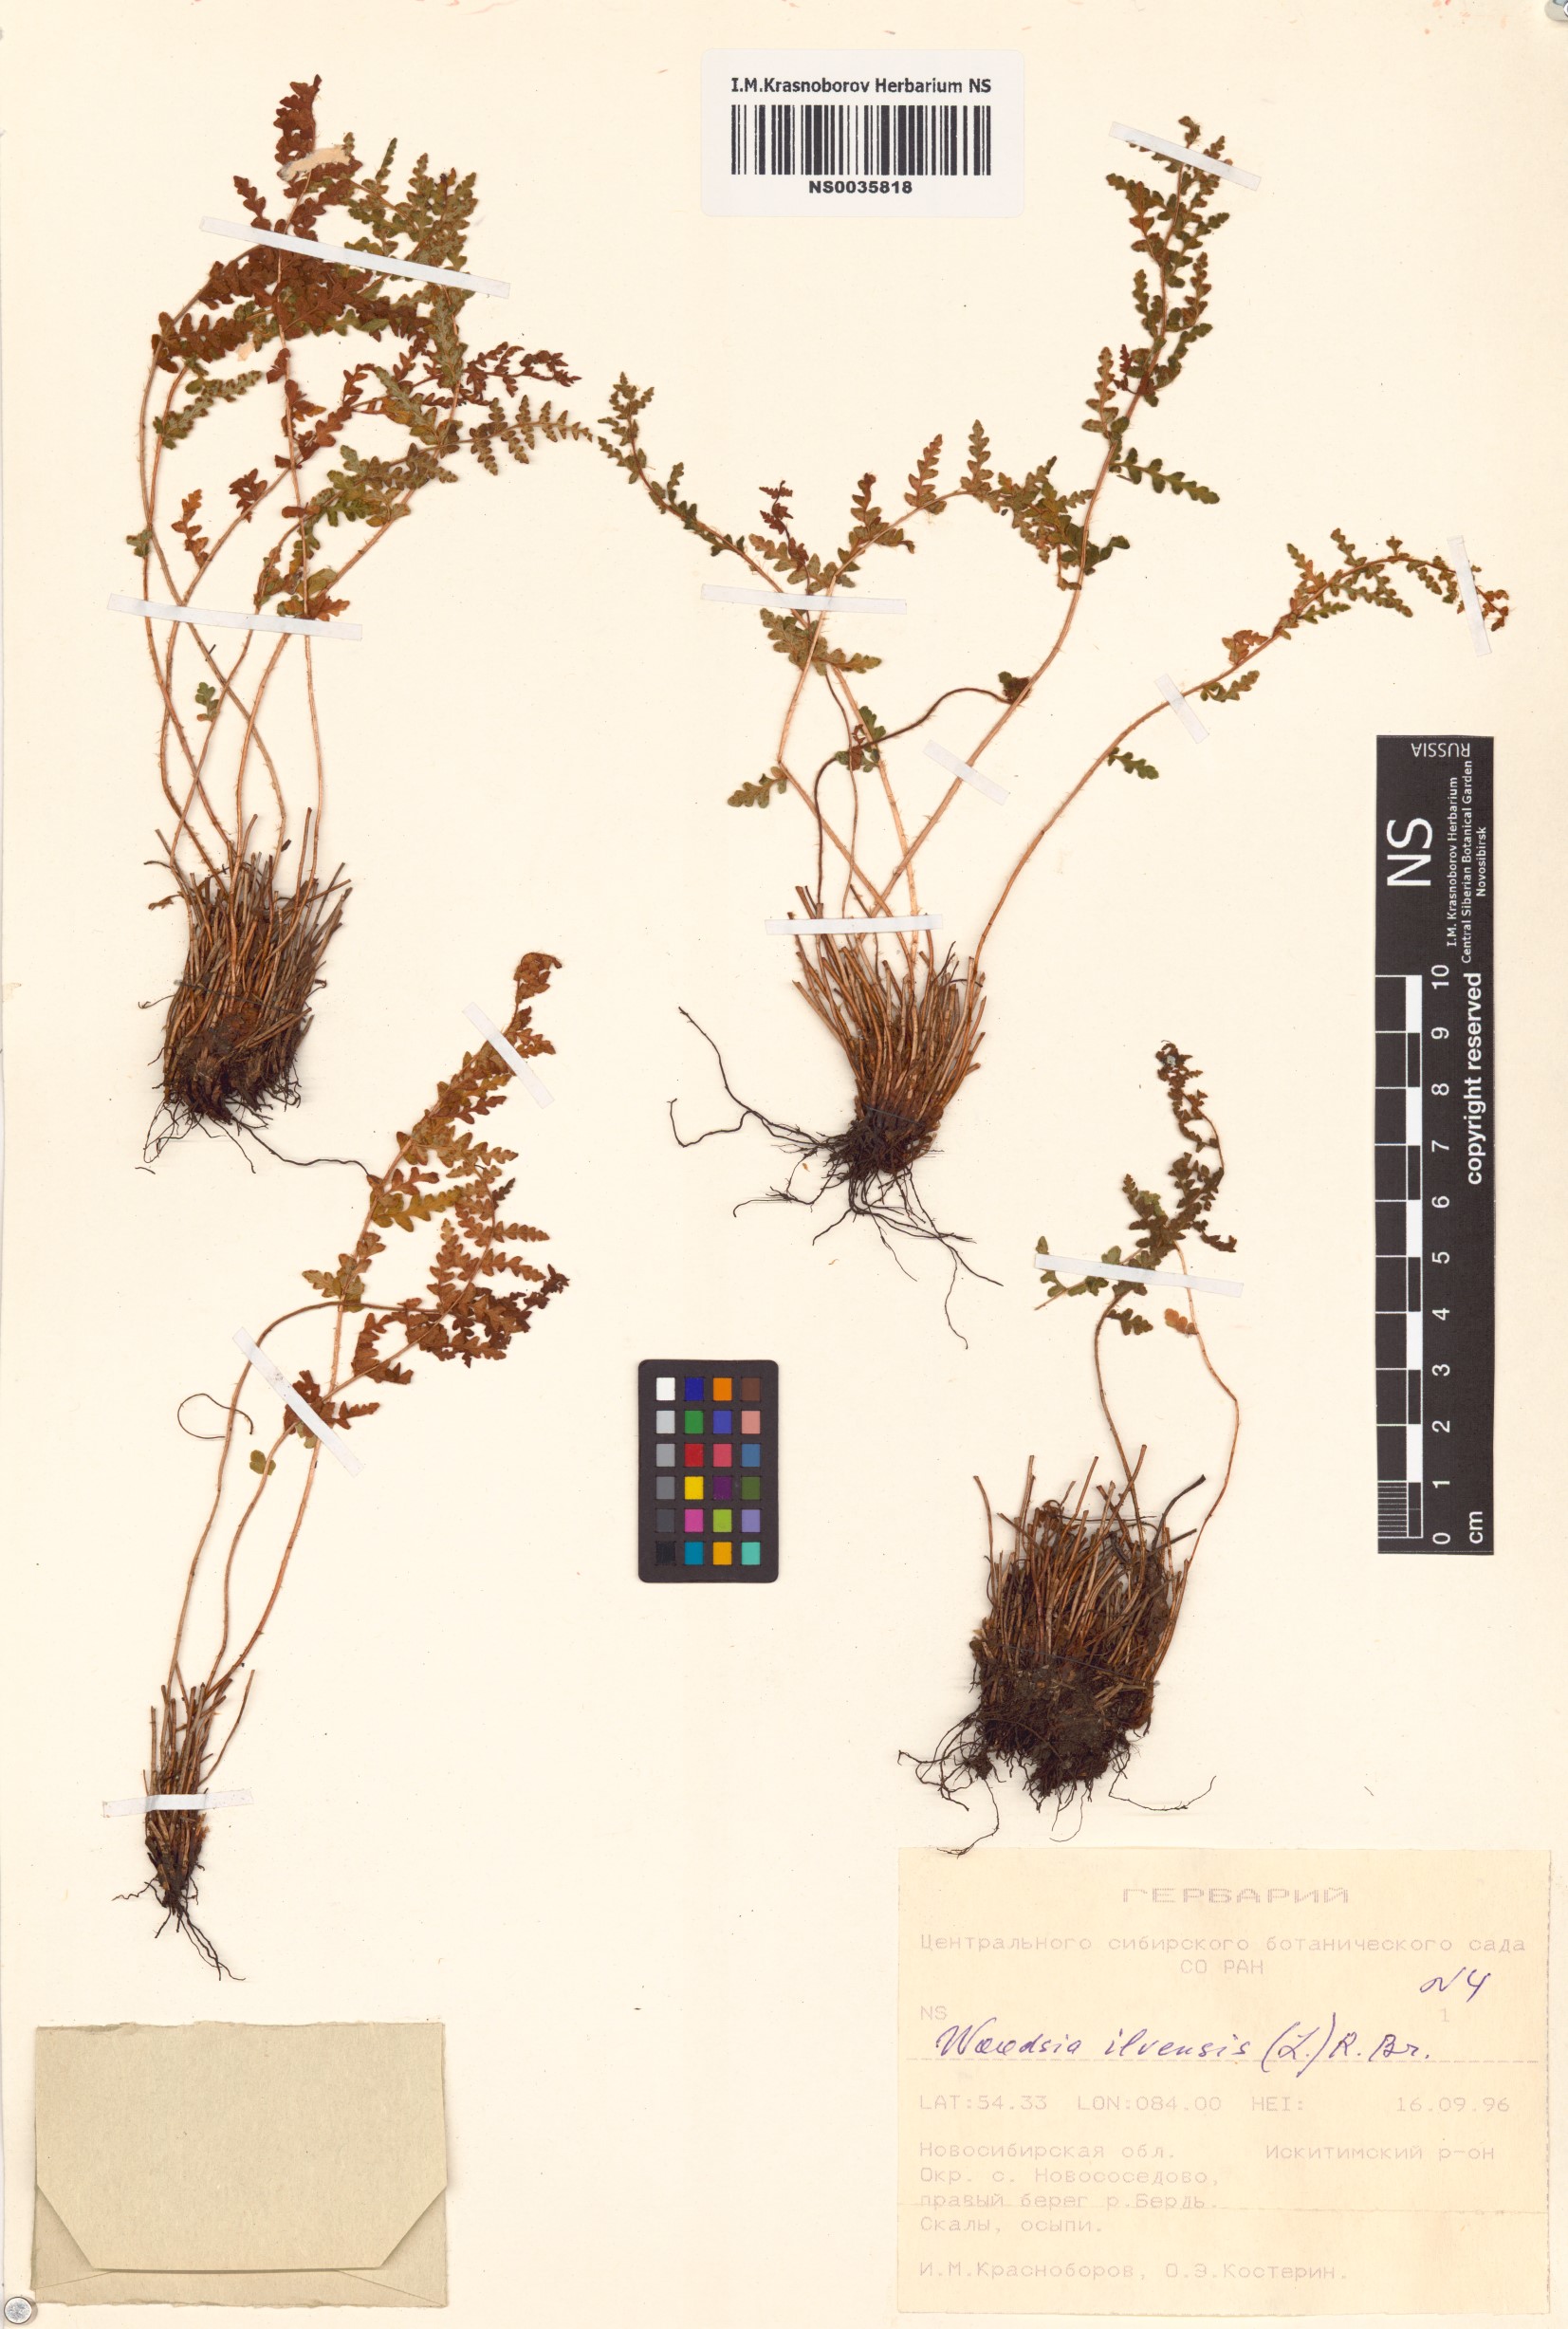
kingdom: Plantae
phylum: Tracheophyta
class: Polypodiopsida
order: Polypodiales
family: Woodsiaceae
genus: Woodsia
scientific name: Woodsia ilvensis
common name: Fragrant woodsia
